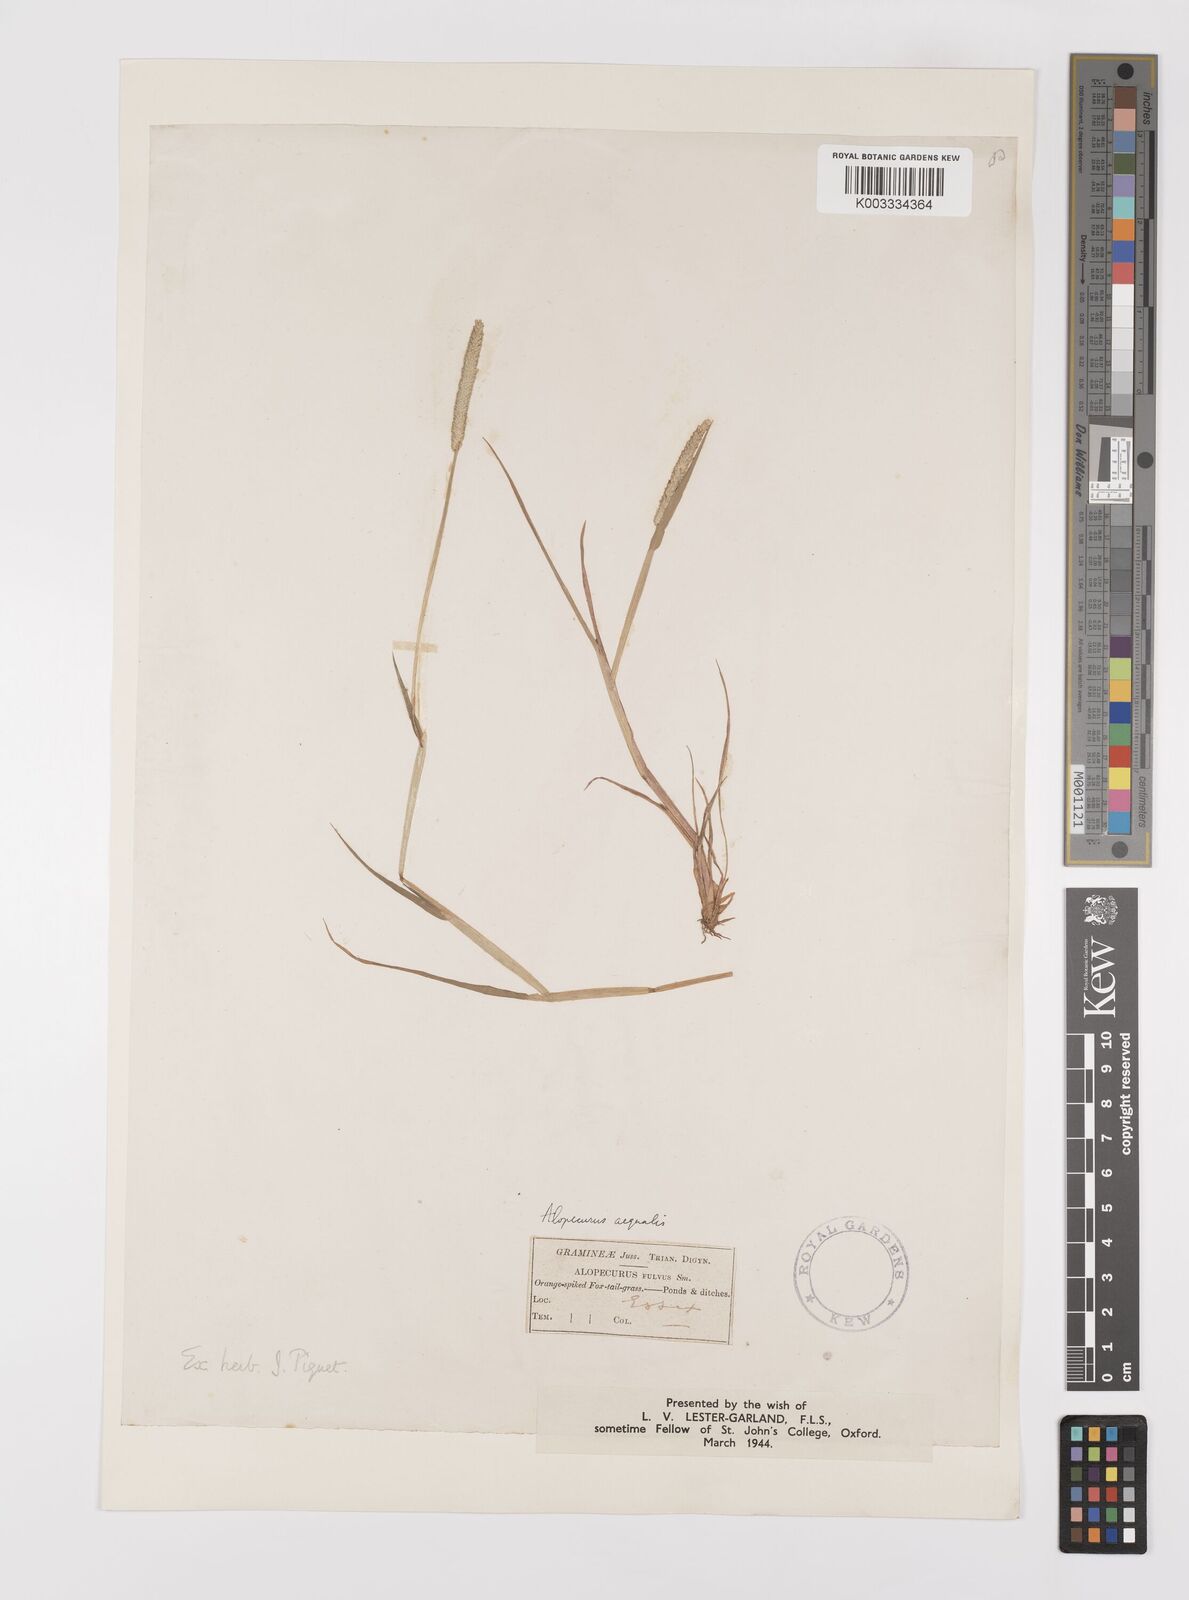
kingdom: Plantae
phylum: Tracheophyta
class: Liliopsida
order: Poales
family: Poaceae
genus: Alopecurus
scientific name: Alopecurus aequalis
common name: Orange foxtail
